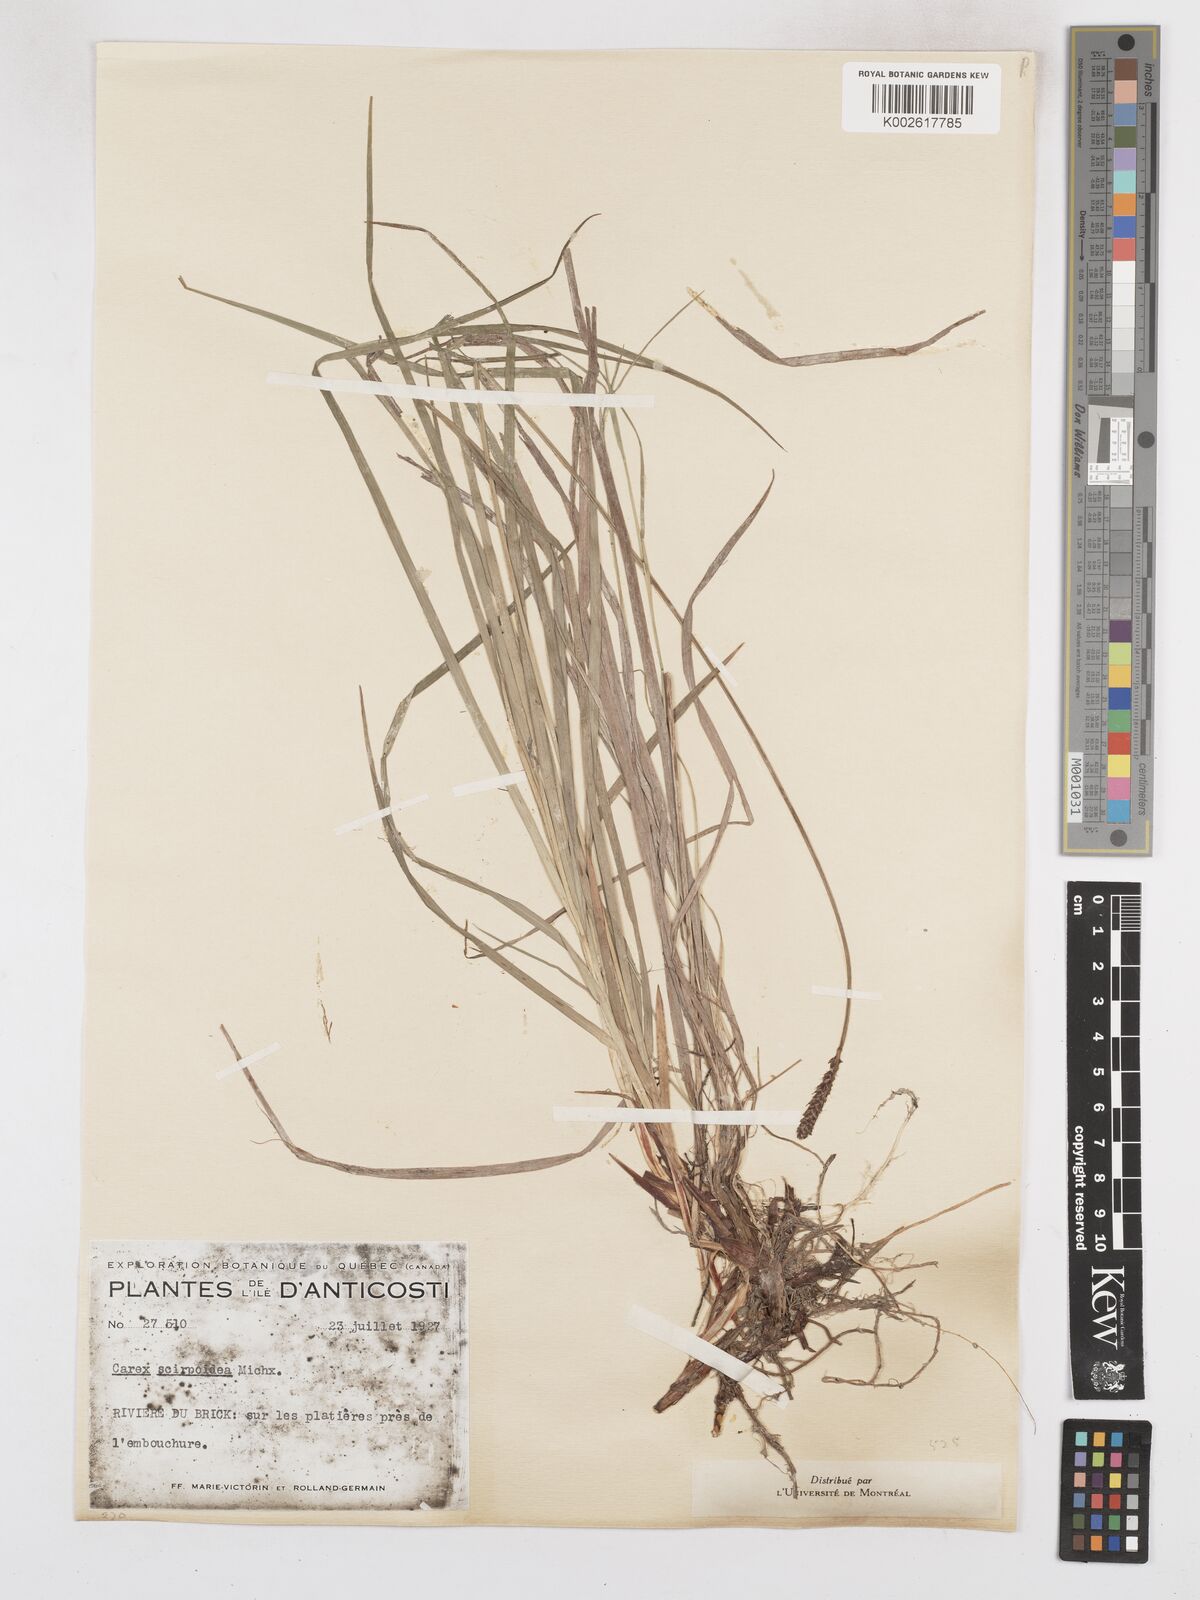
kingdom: Plantae
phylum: Tracheophyta
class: Liliopsida
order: Poales
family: Cyperaceae
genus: Carex
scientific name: Carex scirpoidea
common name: Canada single-spike sedge
